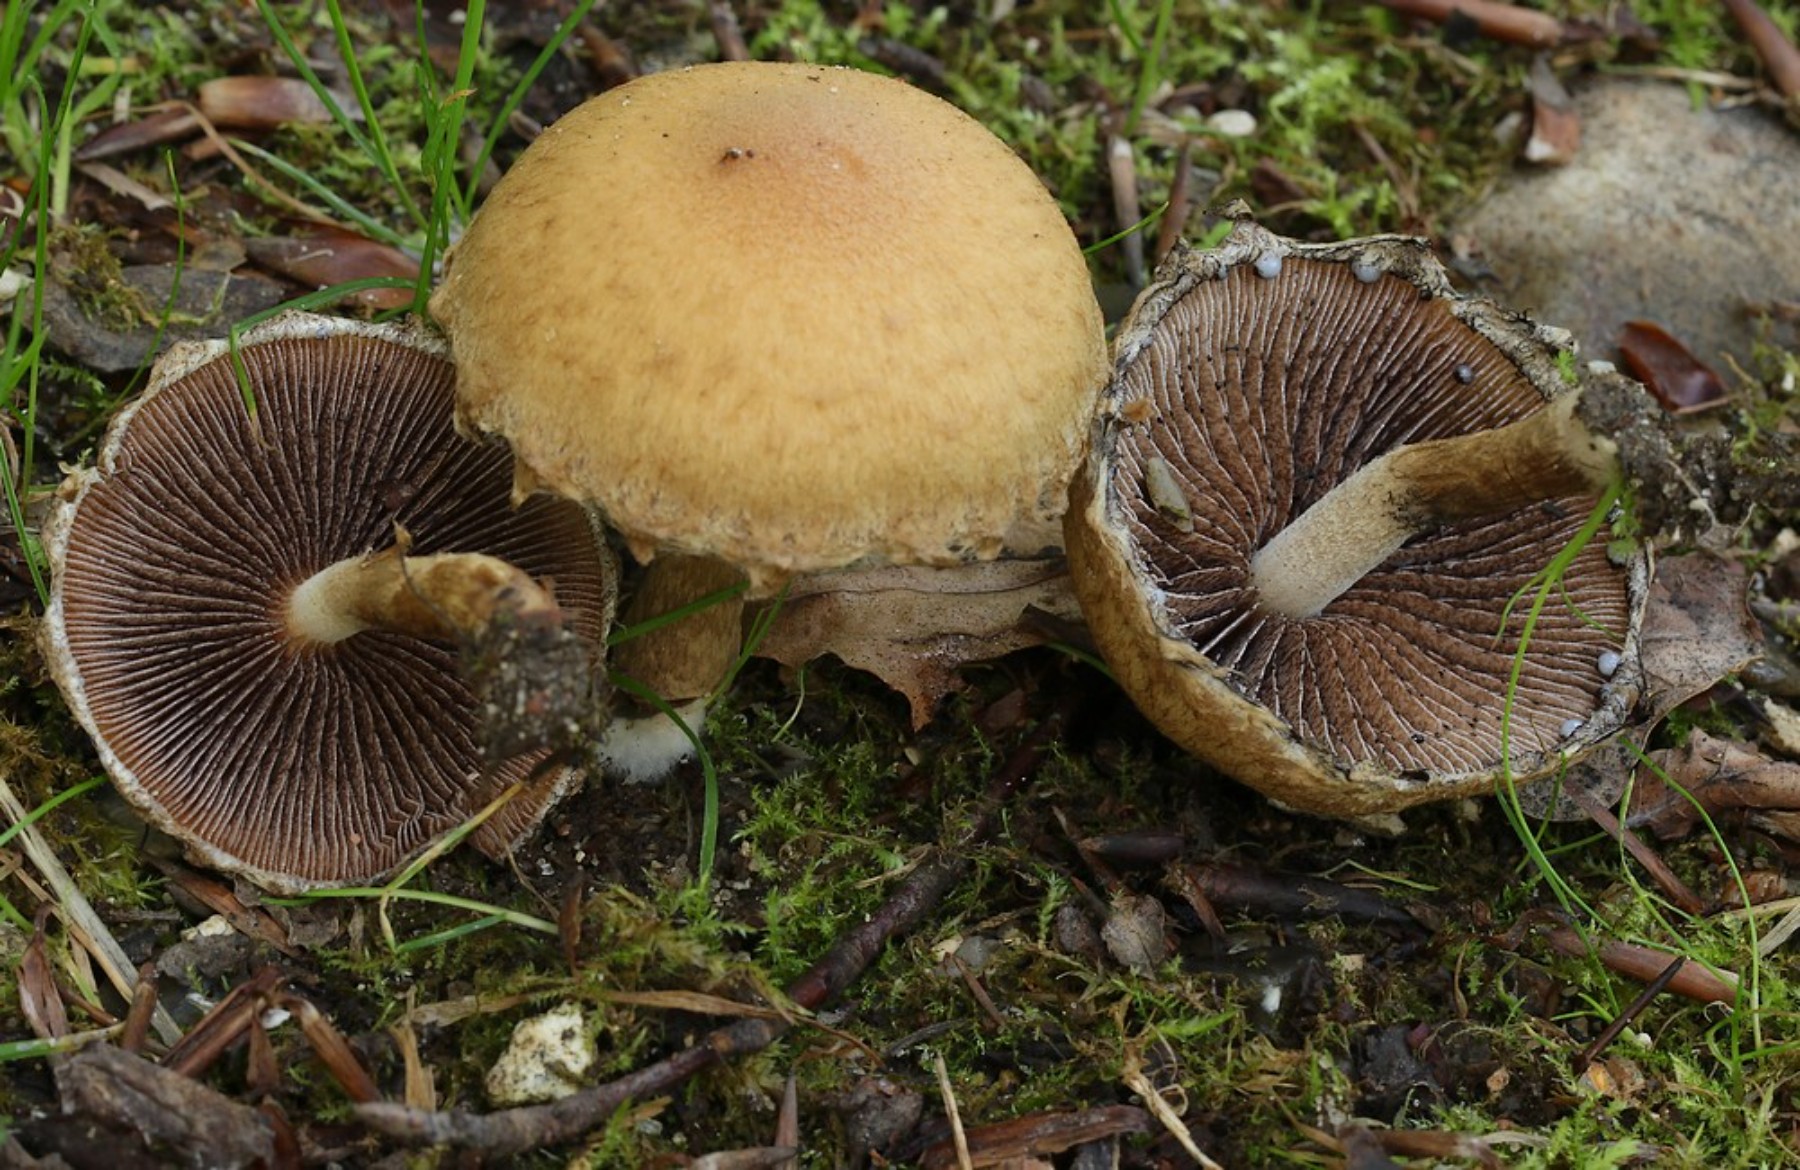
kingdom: Fungi
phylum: Basidiomycota
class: Agaricomycetes
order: Agaricales
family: Psathyrellaceae
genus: Lacrymaria
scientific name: Lacrymaria lacrymabunda
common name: grædende mørkhat
